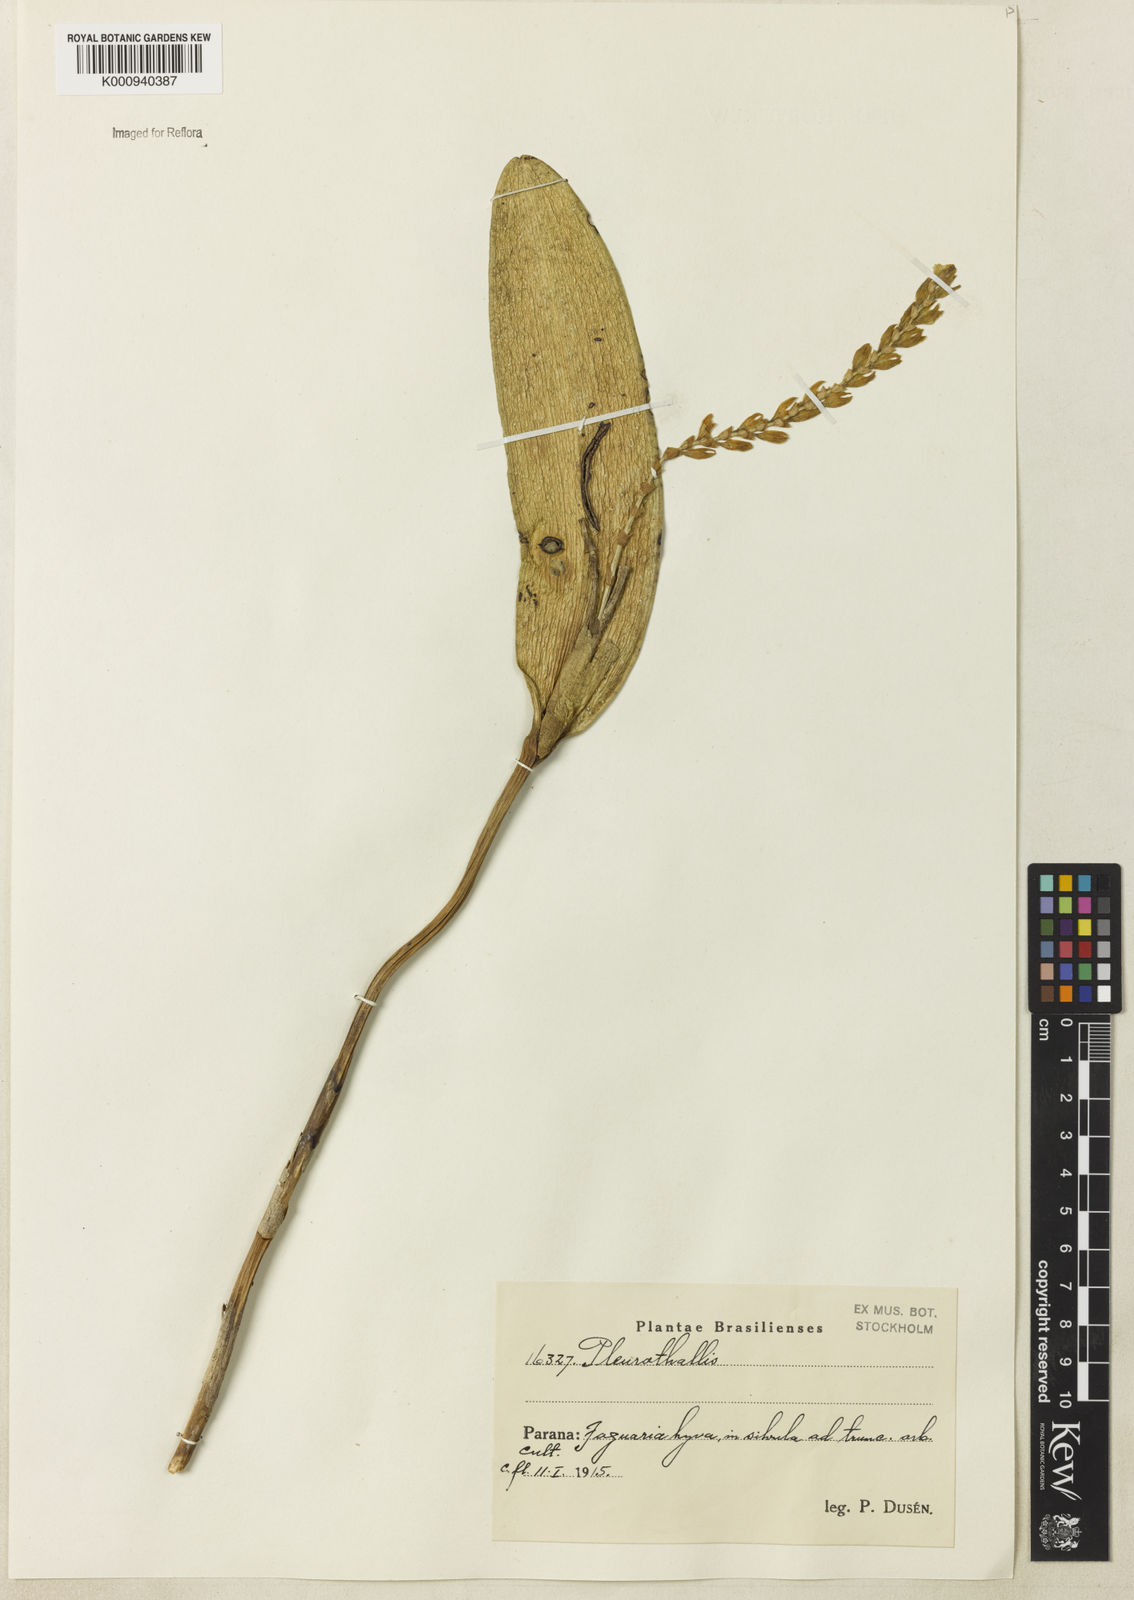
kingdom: Plantae
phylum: Tracheophyta
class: Liliopsida
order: Asparagales
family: Orchidaceae
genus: Pleurothallis
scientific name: Pleurothallis
